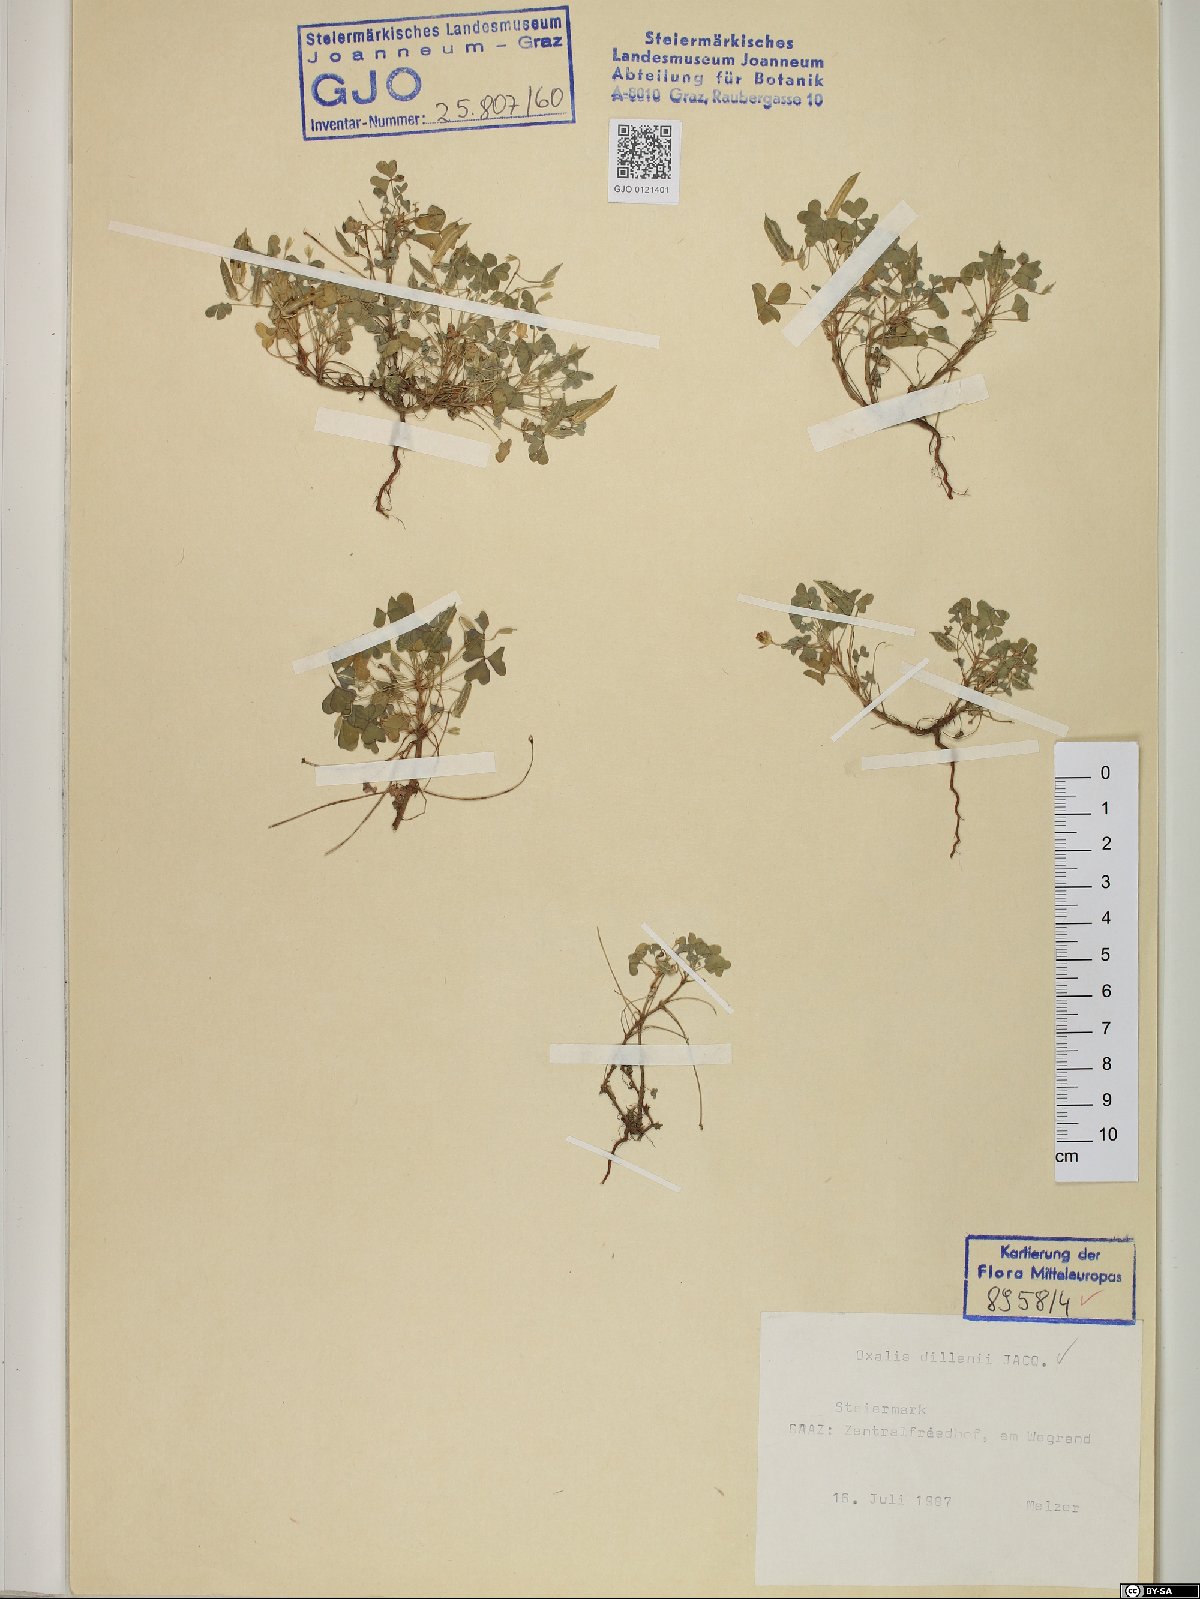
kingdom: Plantae
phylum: Tracheophyta
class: Magnoliopsida
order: Oxalidales
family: Oxalidaceae
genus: Oxalis
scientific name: Oxalis dillenii
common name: Sussex yellow-sorrel
